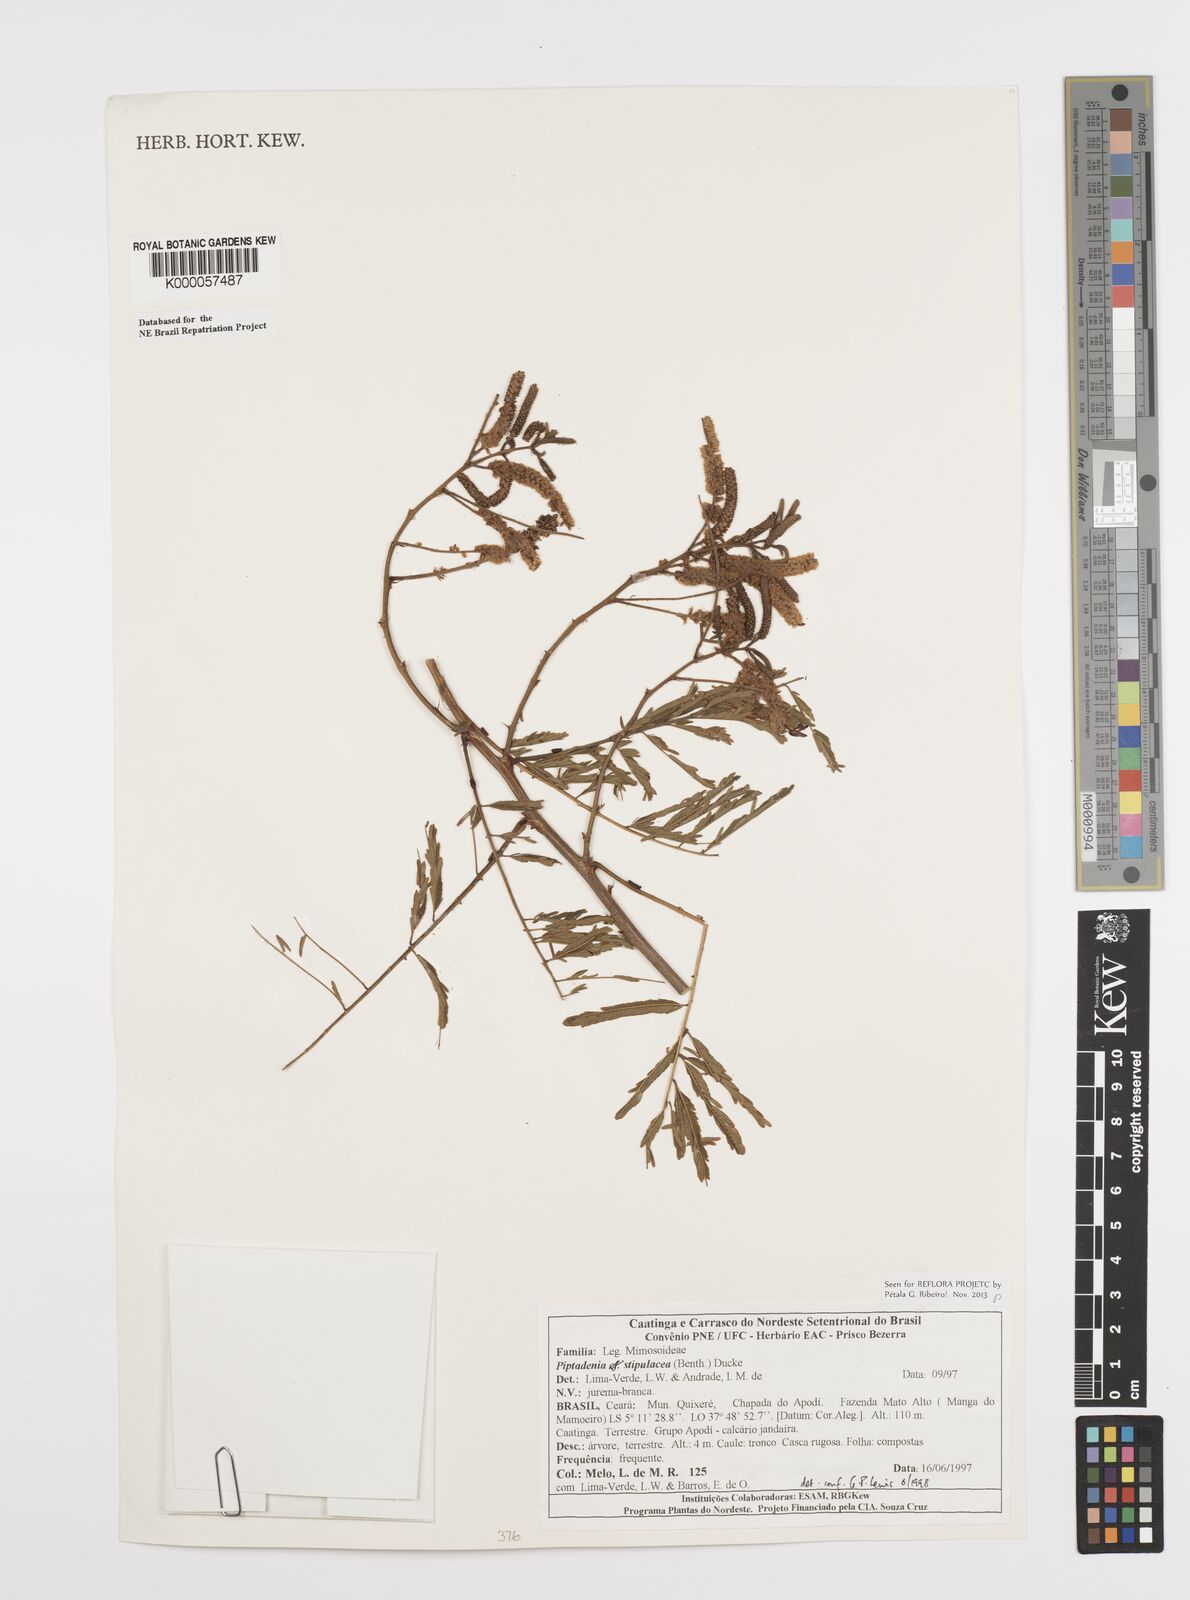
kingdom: Plantae
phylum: Tracheophyta
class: Magnoliopsida
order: Fabales
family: Fabaceae
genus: Piptadenia
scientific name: Piptadenia retusa
